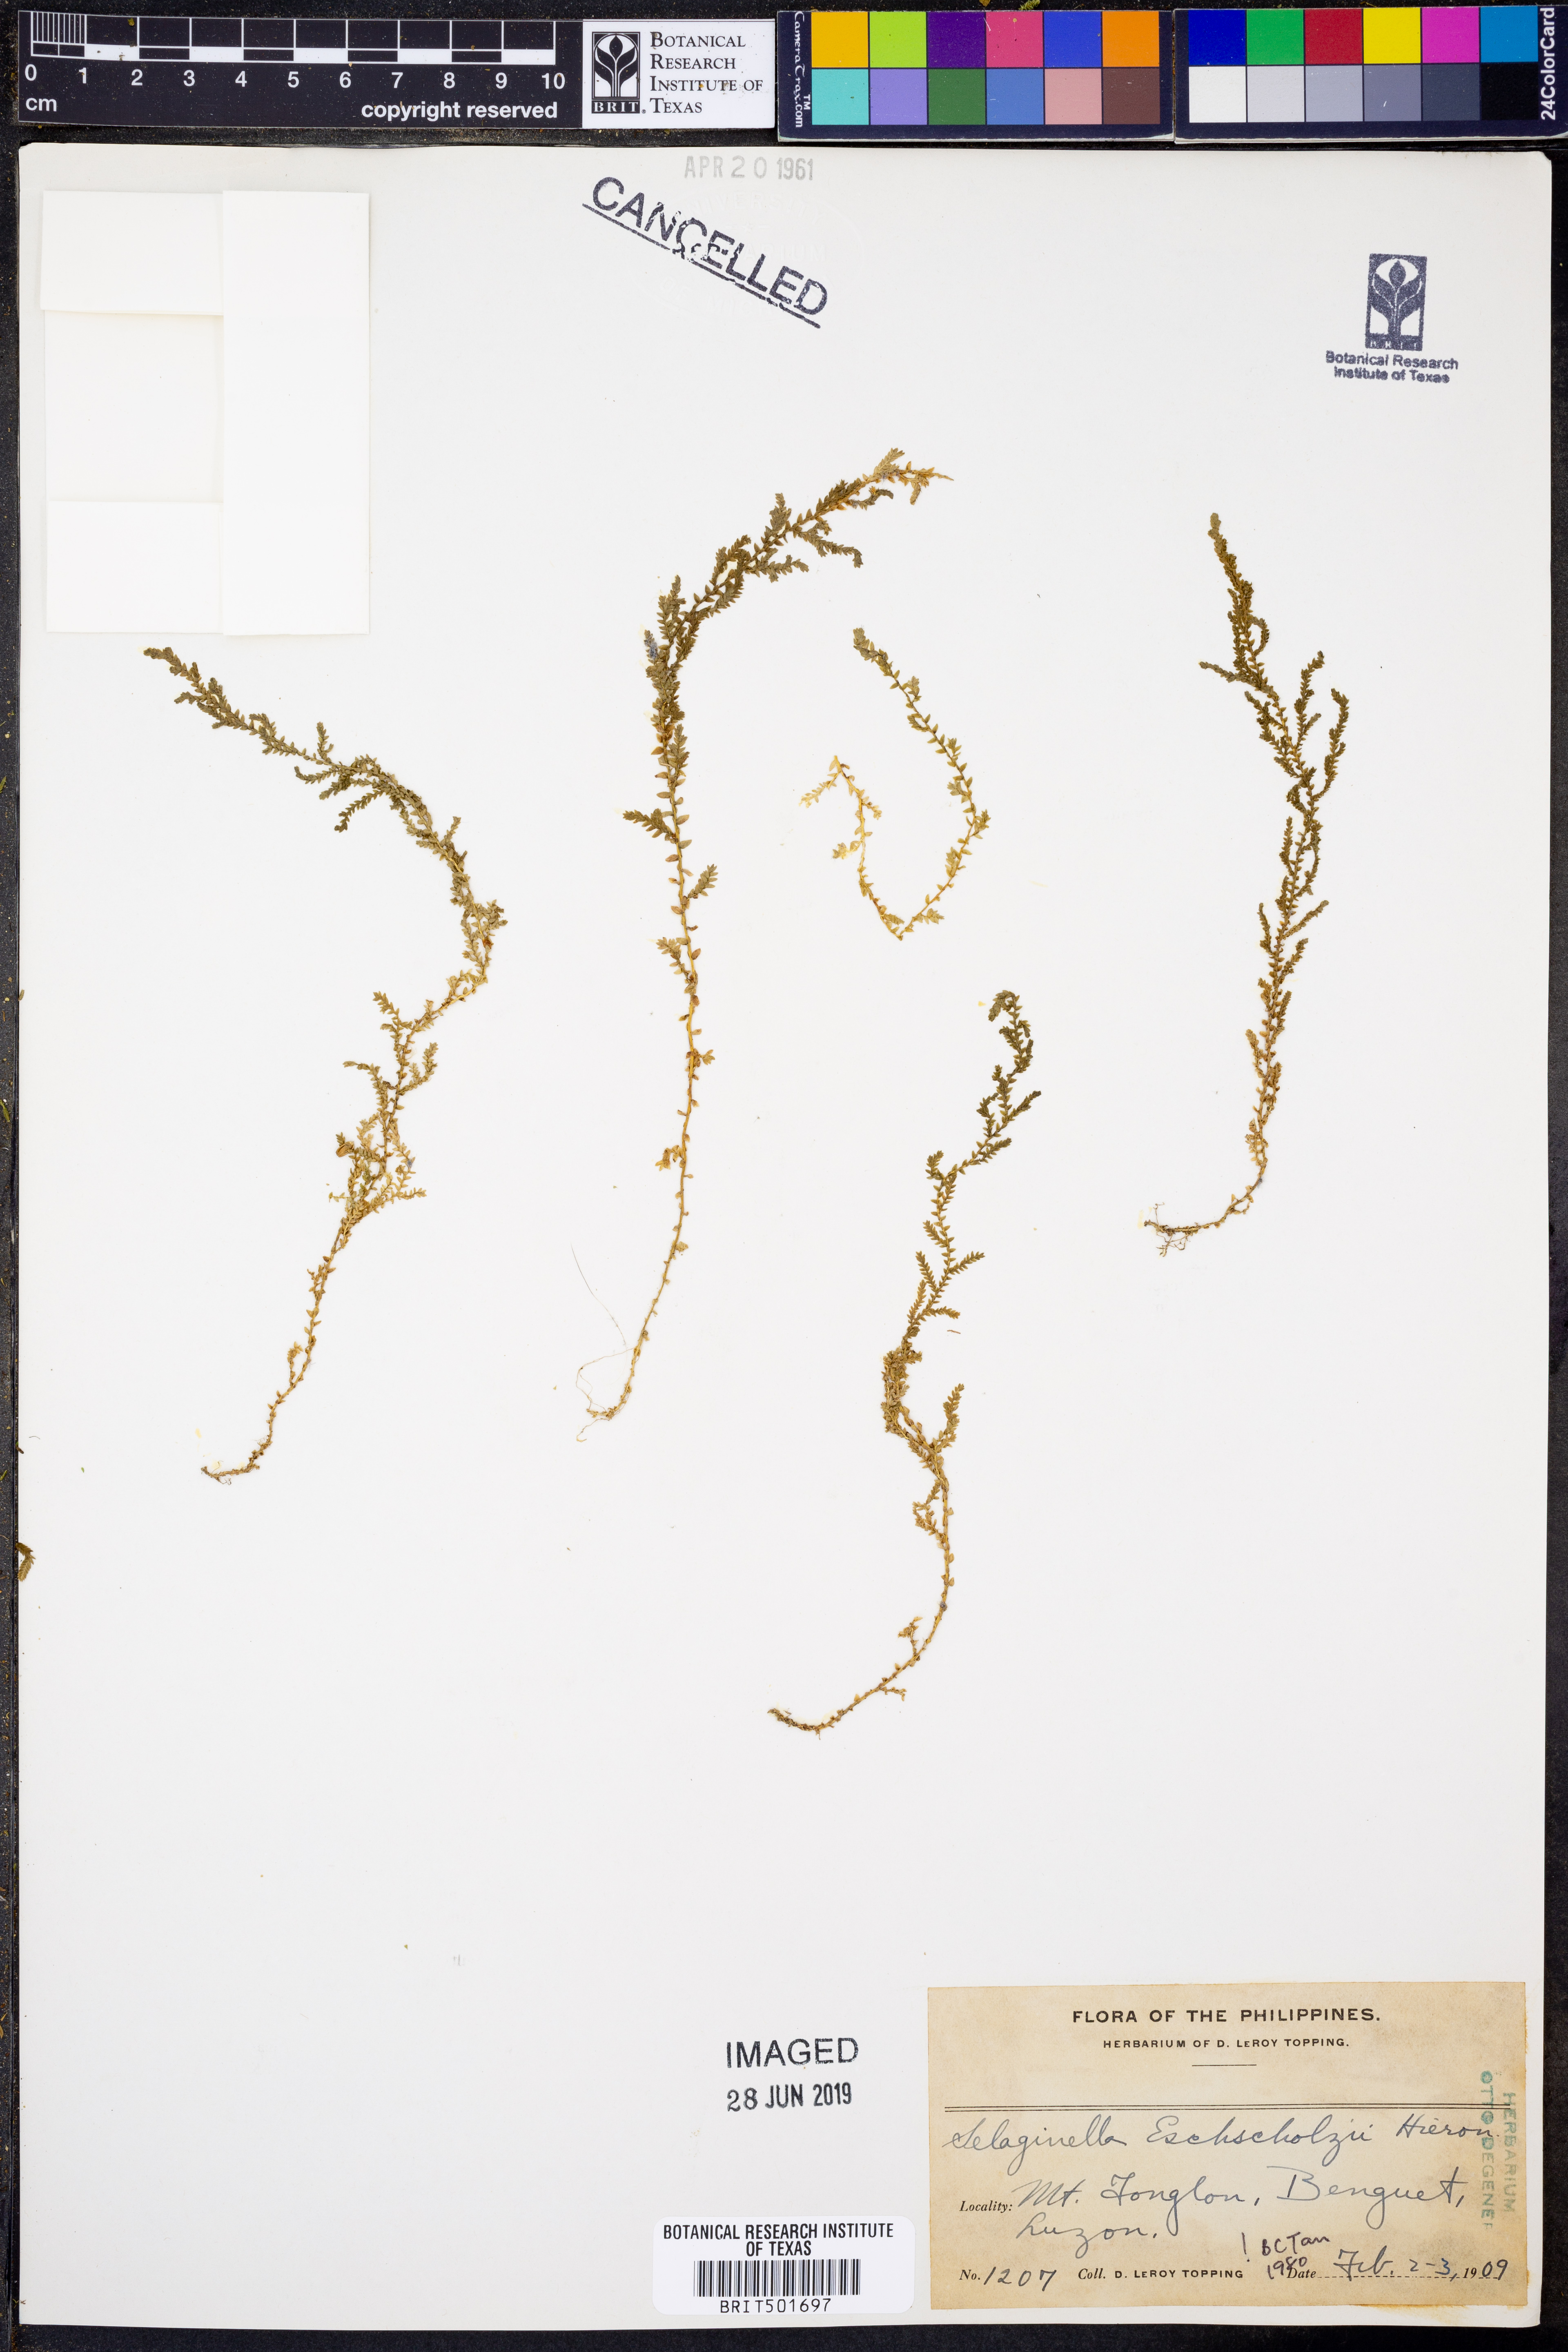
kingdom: Plantae
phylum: Tracheophyta
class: Lycopodiopsida
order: Selaginellales
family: Selaginellaceae
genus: Selaginella
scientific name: Selaginella eschscholzii
